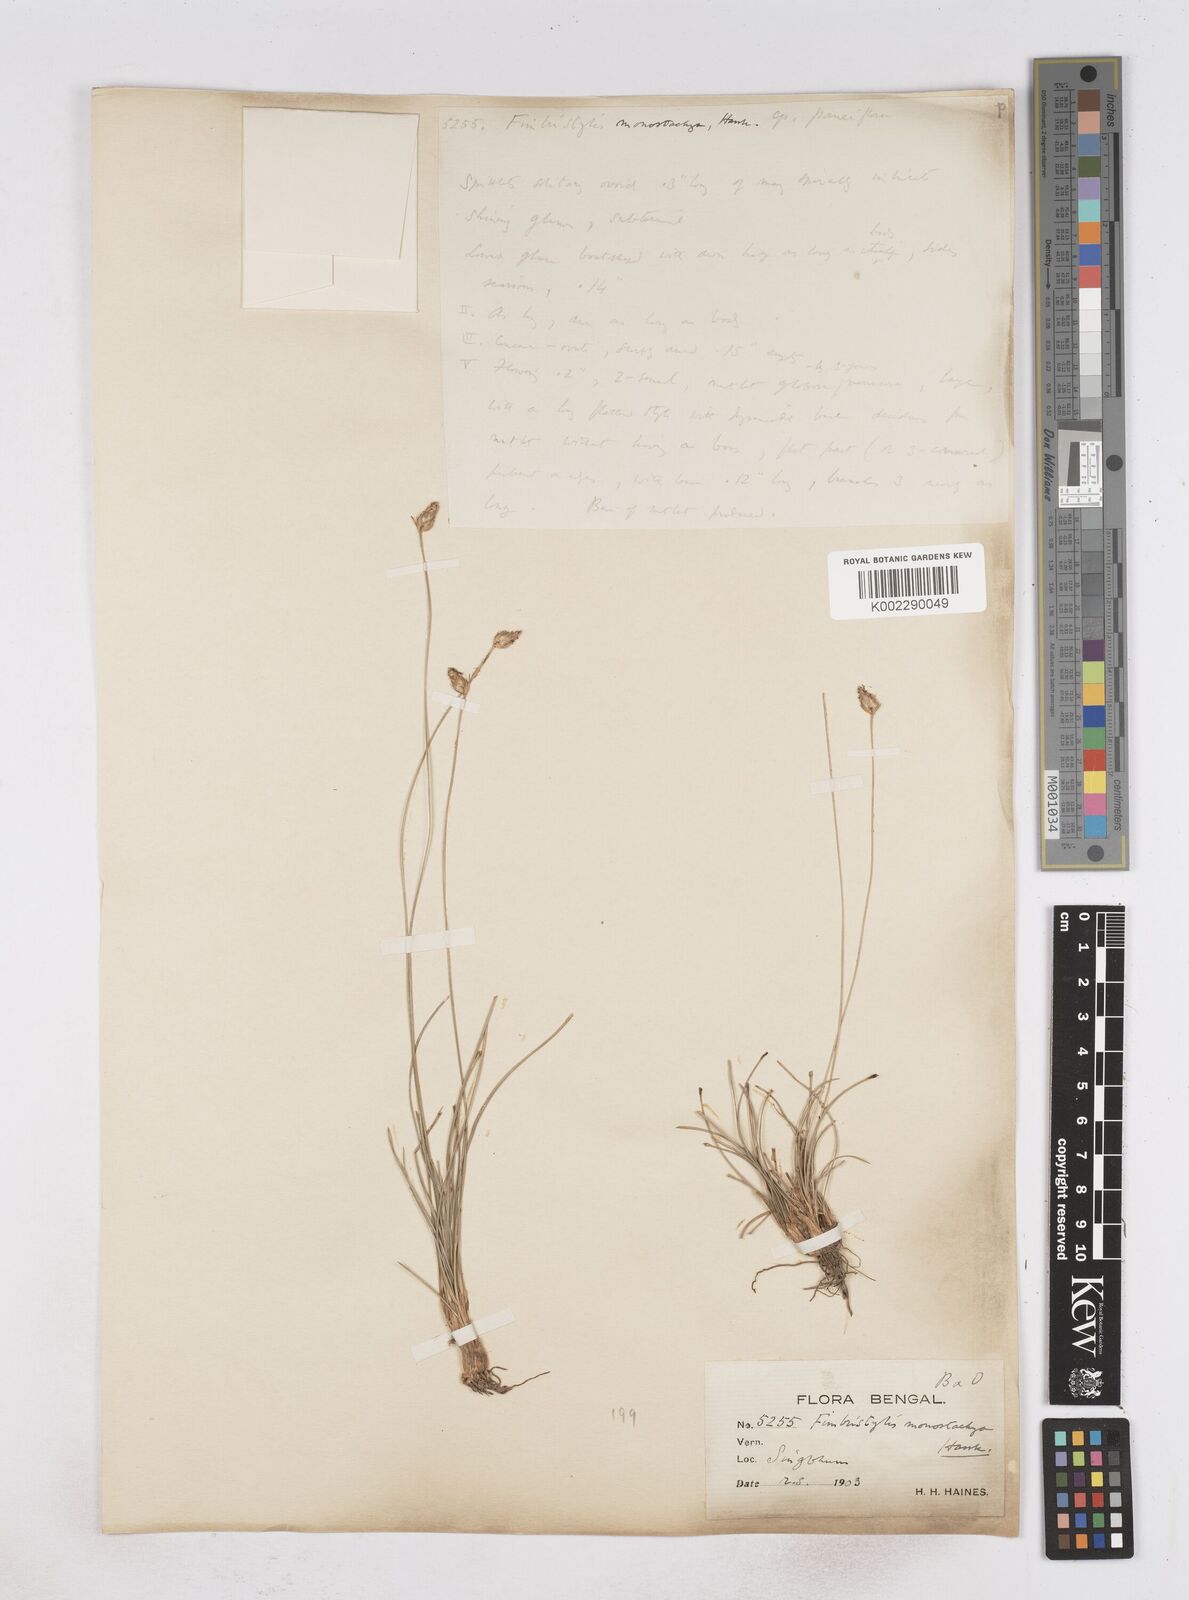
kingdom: Plantae
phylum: Tracheophyta
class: Liliopsida
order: Poales
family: Cyperaceae
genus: Abildgaardia
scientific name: Abildgaardia ovata
